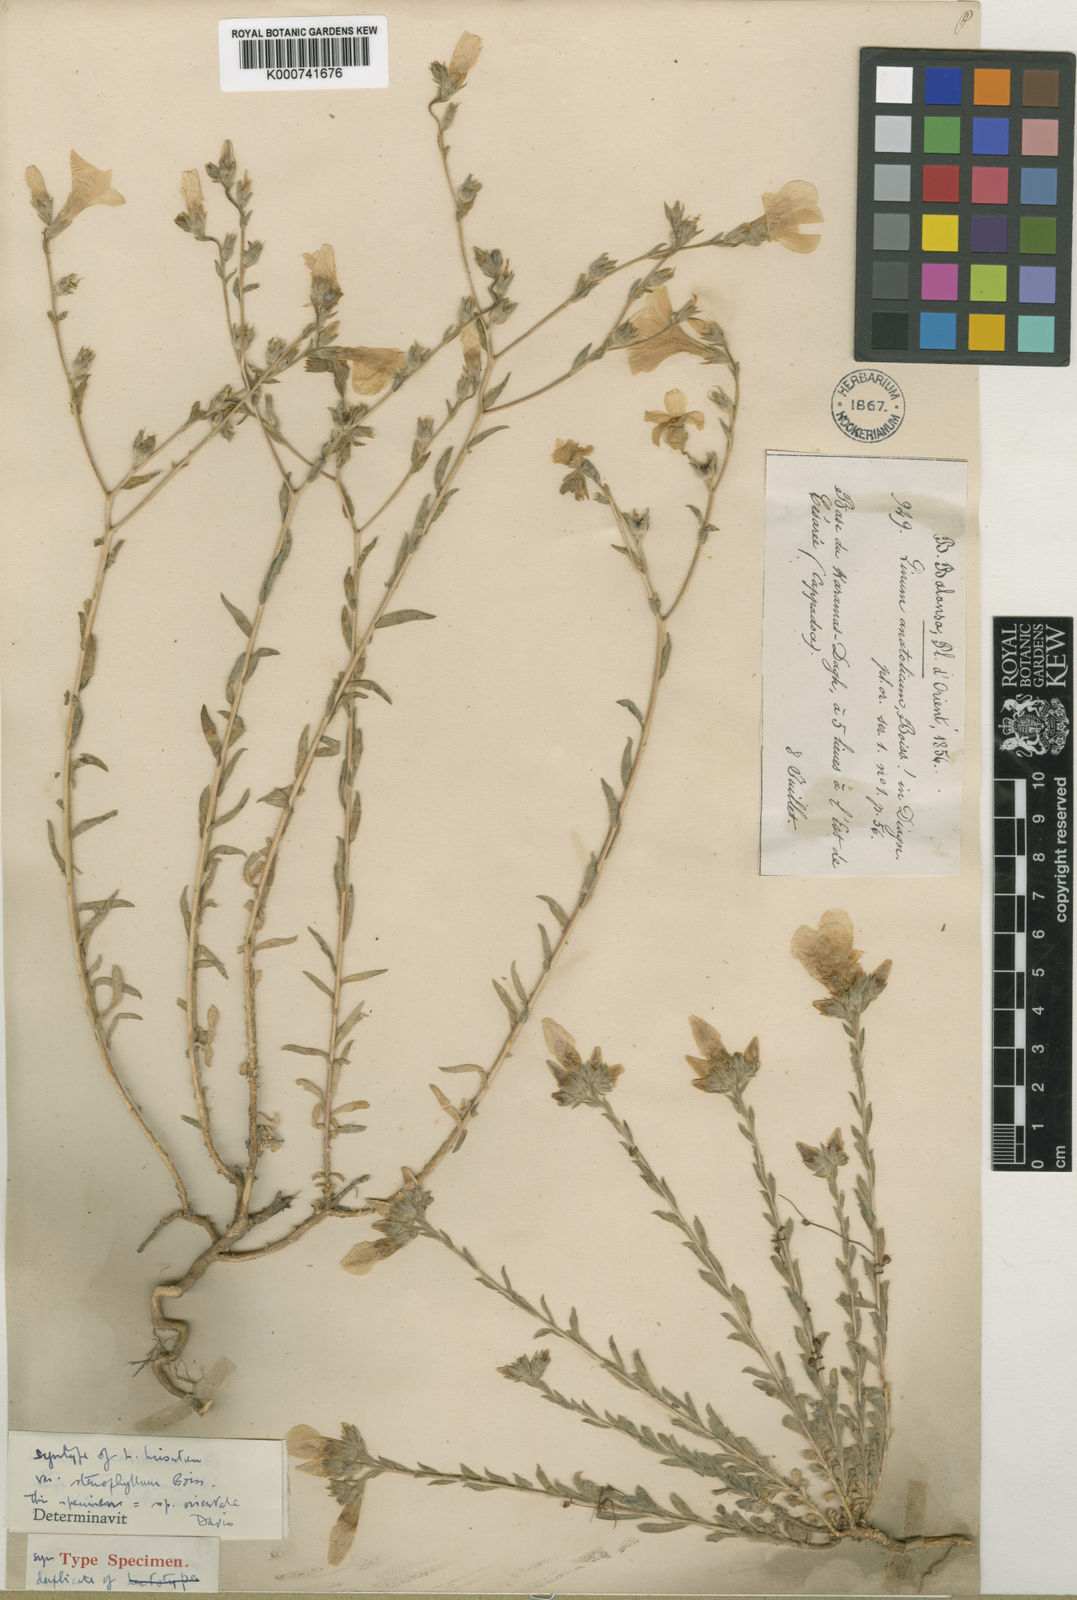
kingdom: Plantae
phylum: Tracheophyta
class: Magnoliopsida
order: Malpighiales
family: Linaceae
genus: Linum
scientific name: Linum hirsutum
